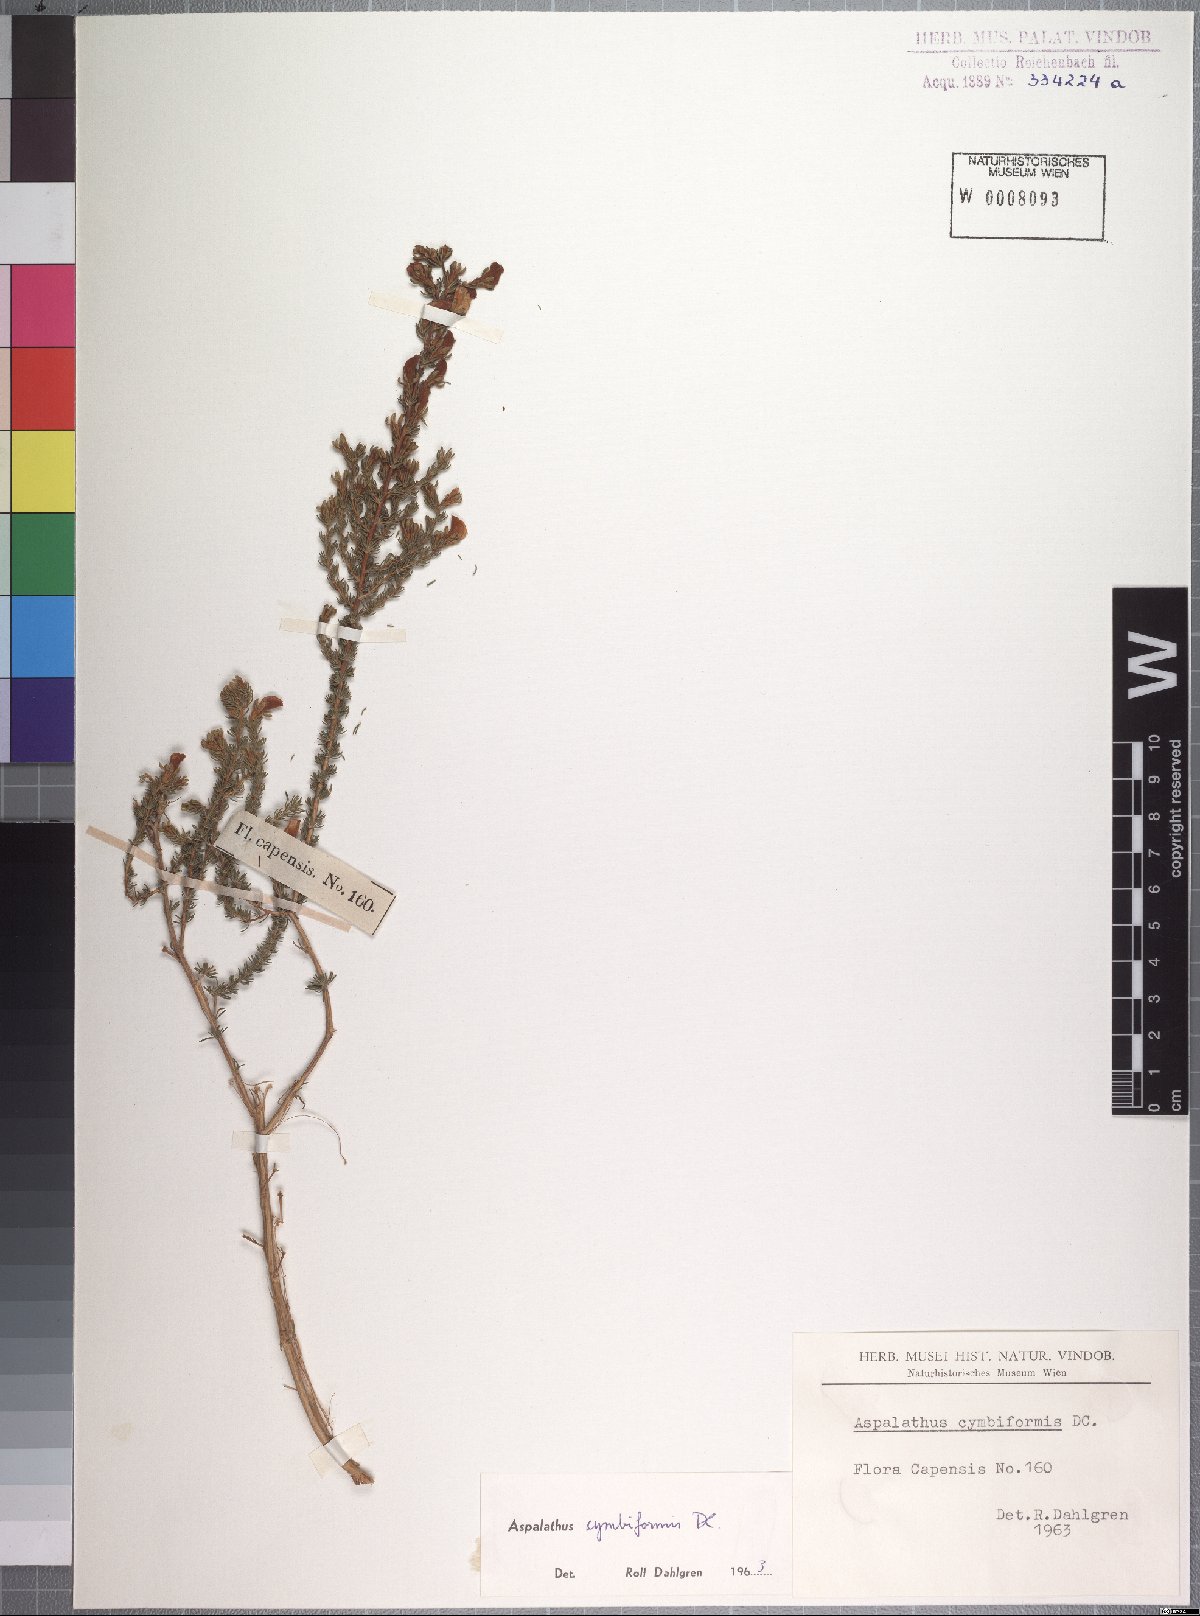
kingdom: Plantae
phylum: Tracheophyta
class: Magnoliopsida
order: Fabales
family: Fabaceae
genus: Aspalathus
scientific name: Aspalathus cymbiformis
